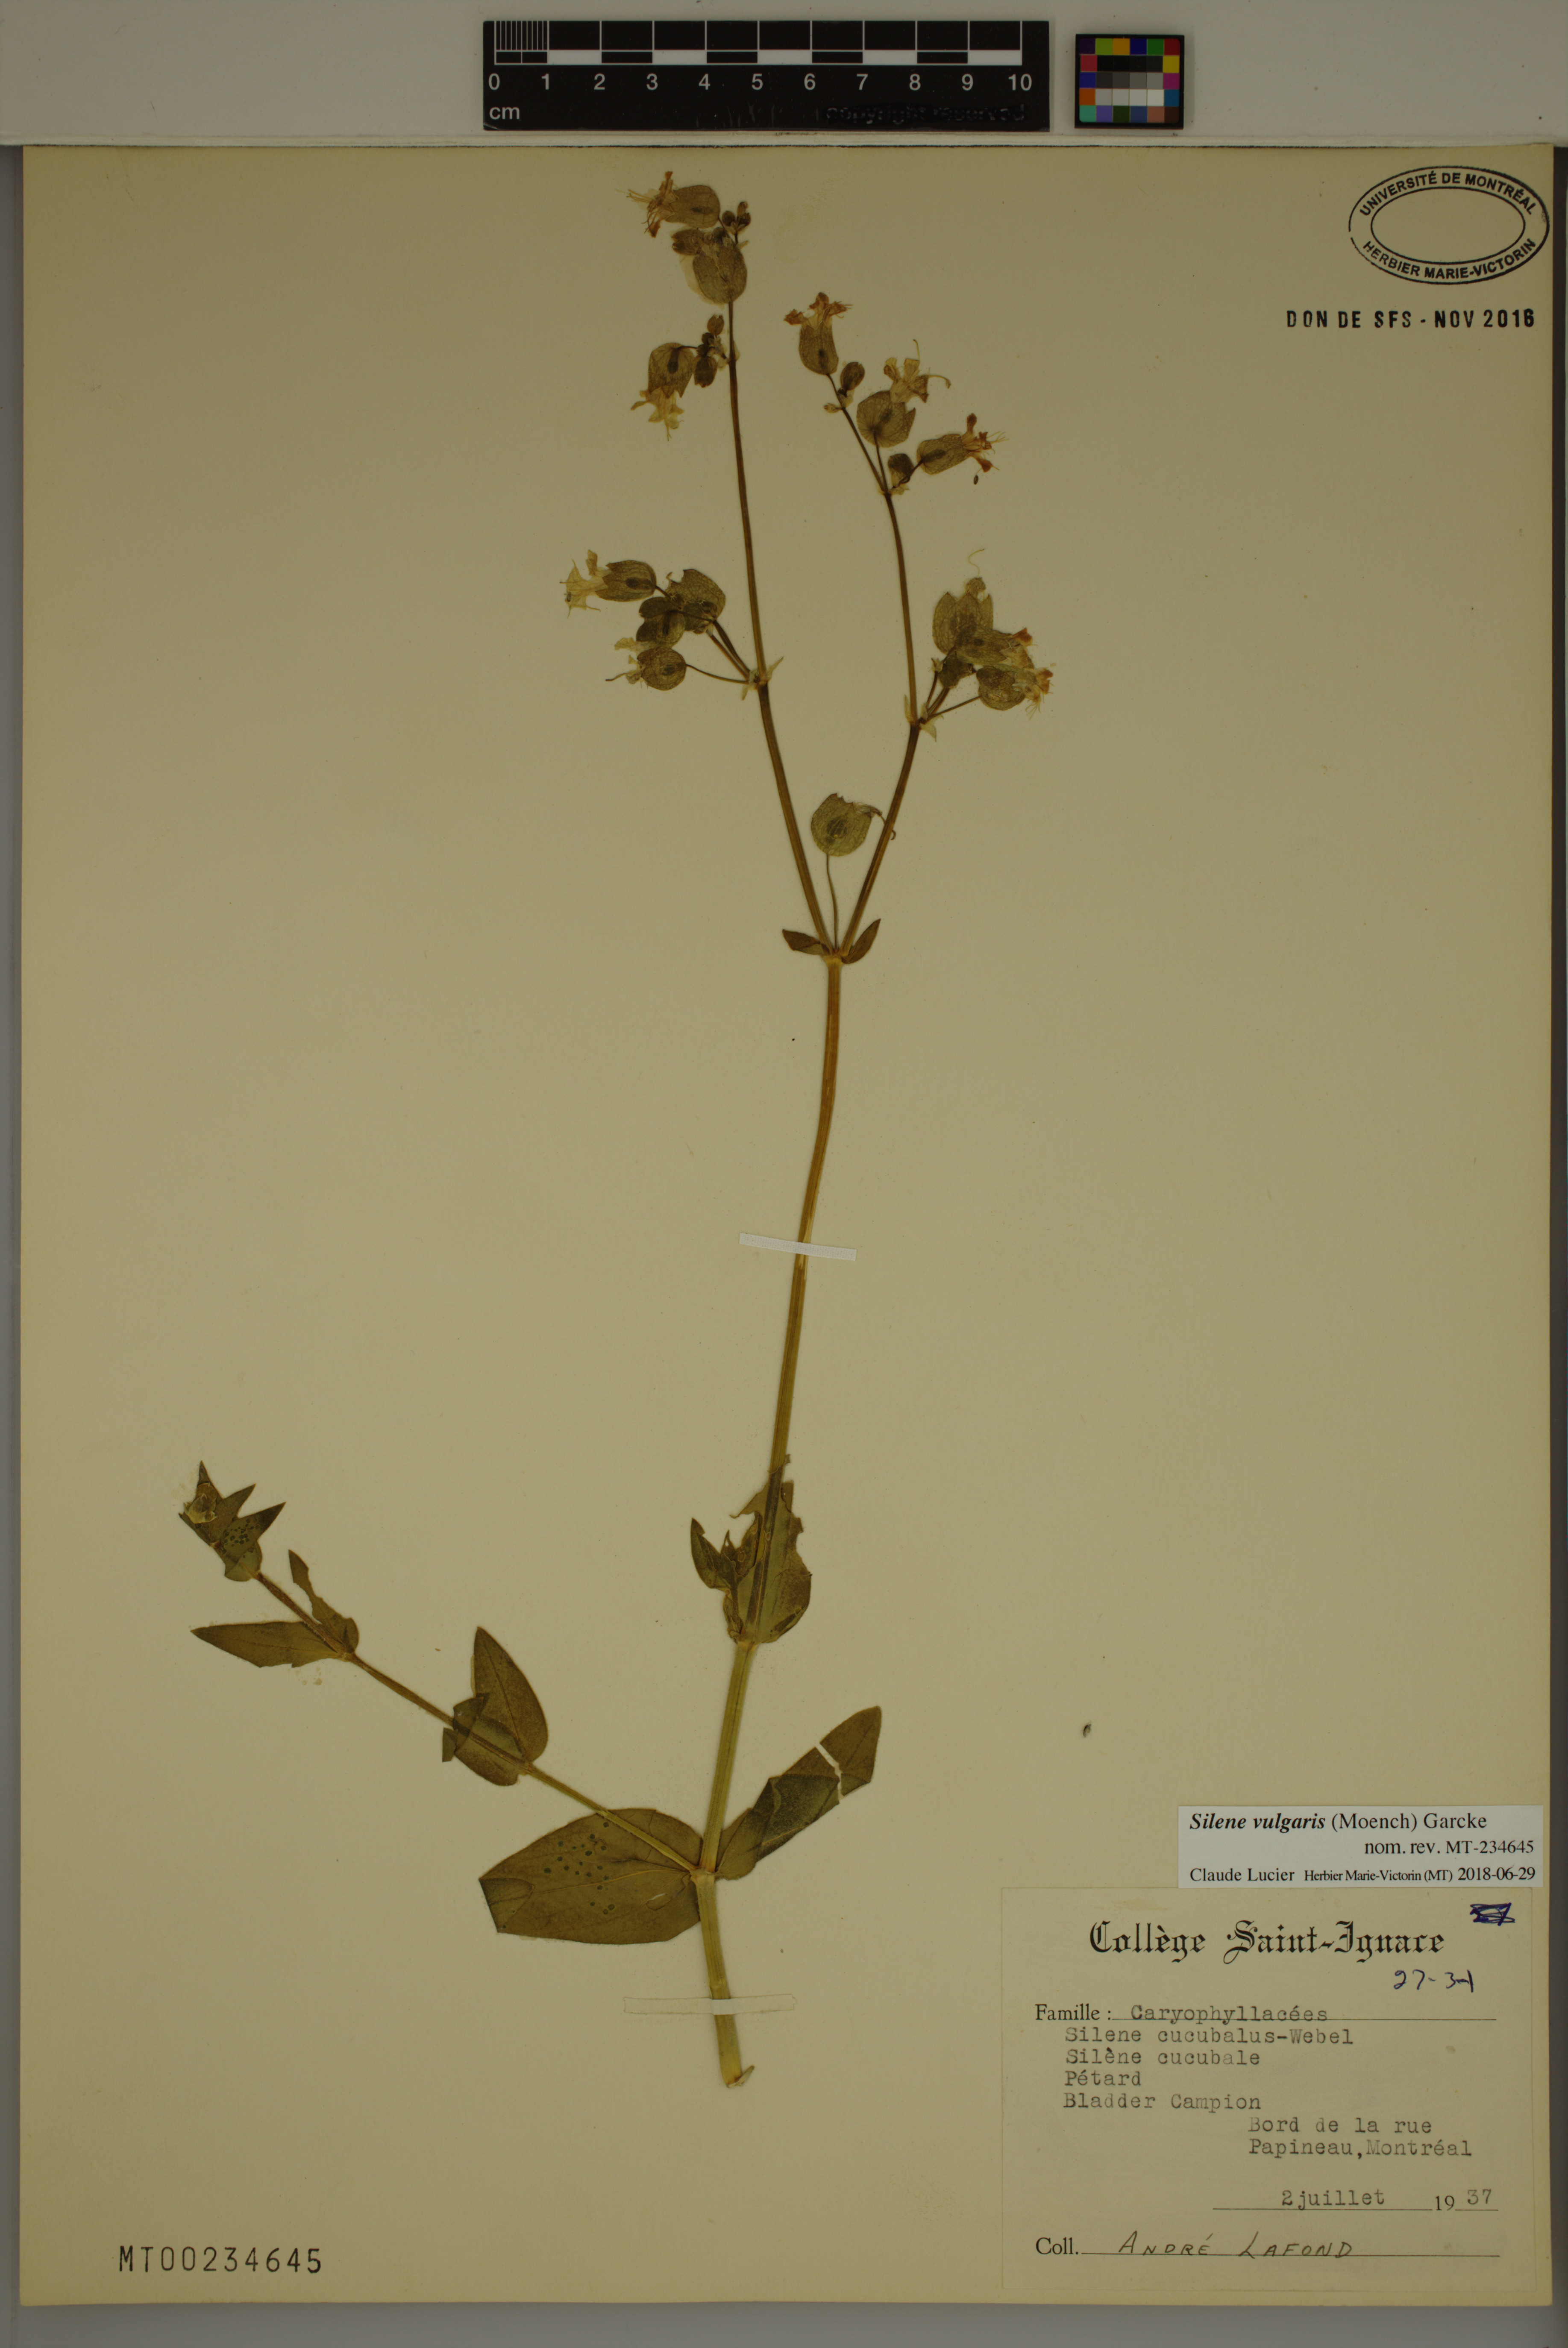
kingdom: Plantae
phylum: Tracheophyta
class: Magnoliopsida
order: Caryophyllales
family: Caryophyllaceae
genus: Silene
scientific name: Silene vulgaris
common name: Bladder campion
